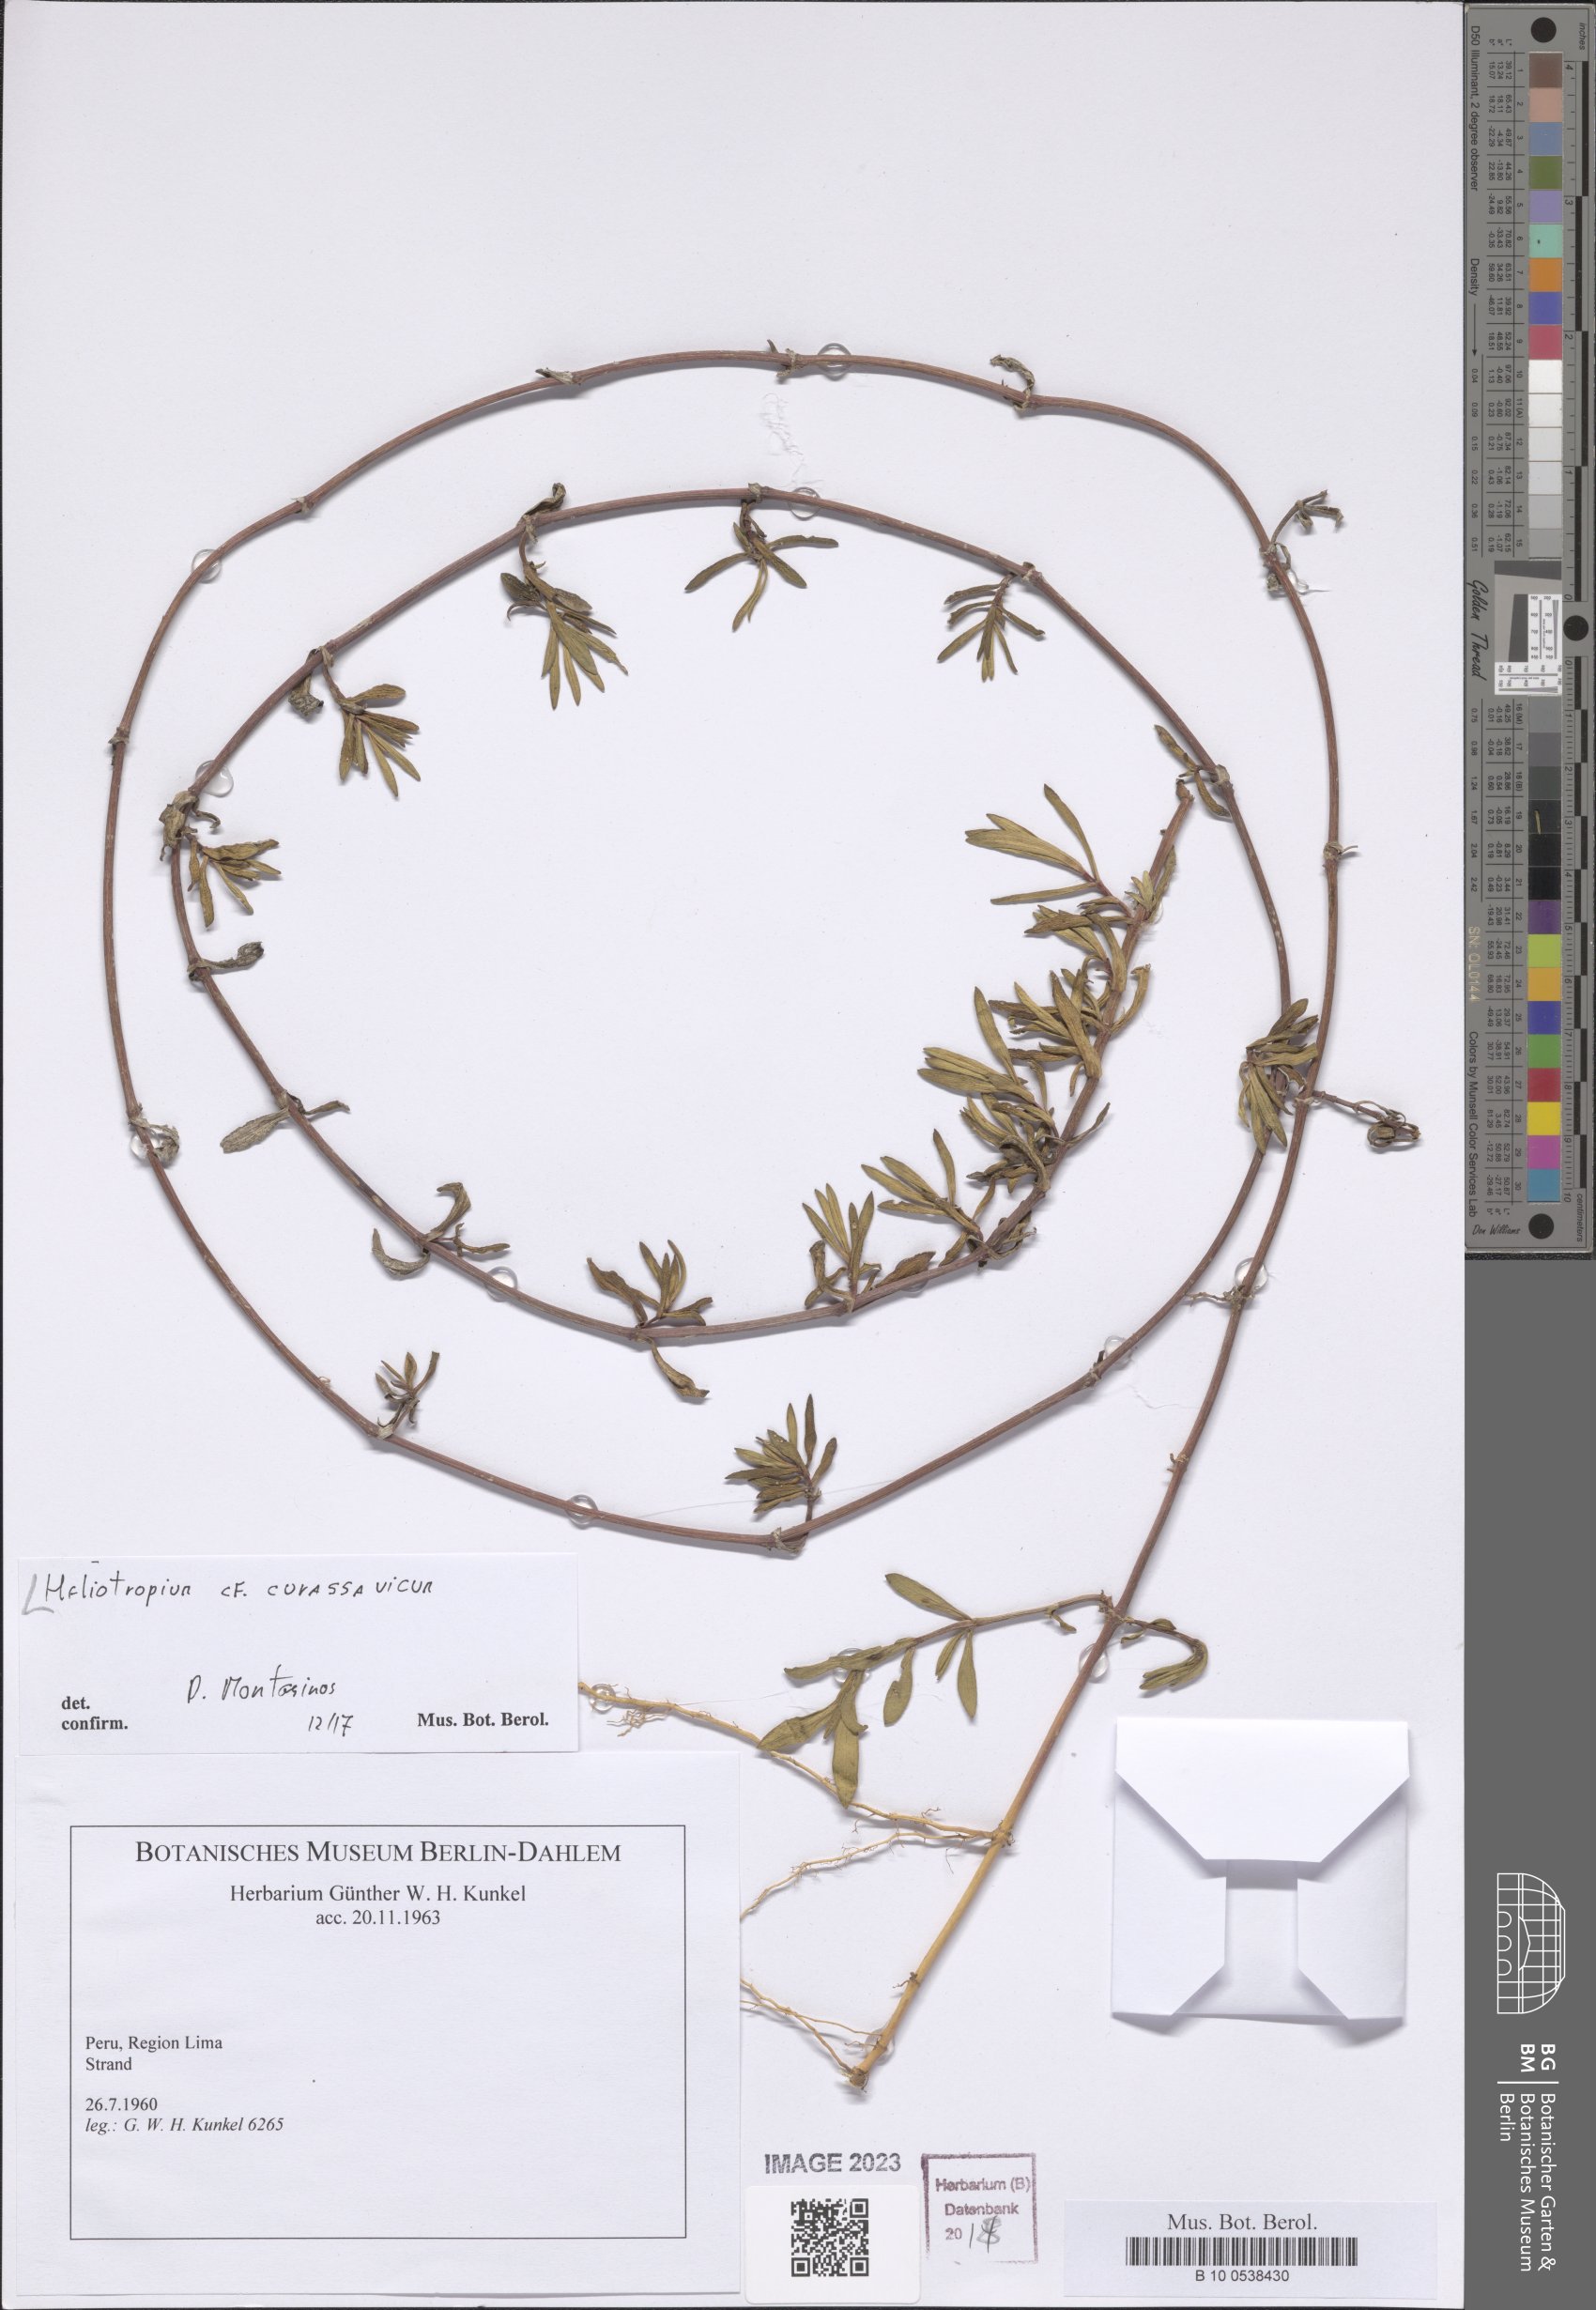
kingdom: Plantae
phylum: Tracheophyta
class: Magnoliopsida
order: Boraginales
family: Heliotropiaceae
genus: Heliotropium
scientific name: Heliotropium curassavicum
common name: Seaside heliotrope
